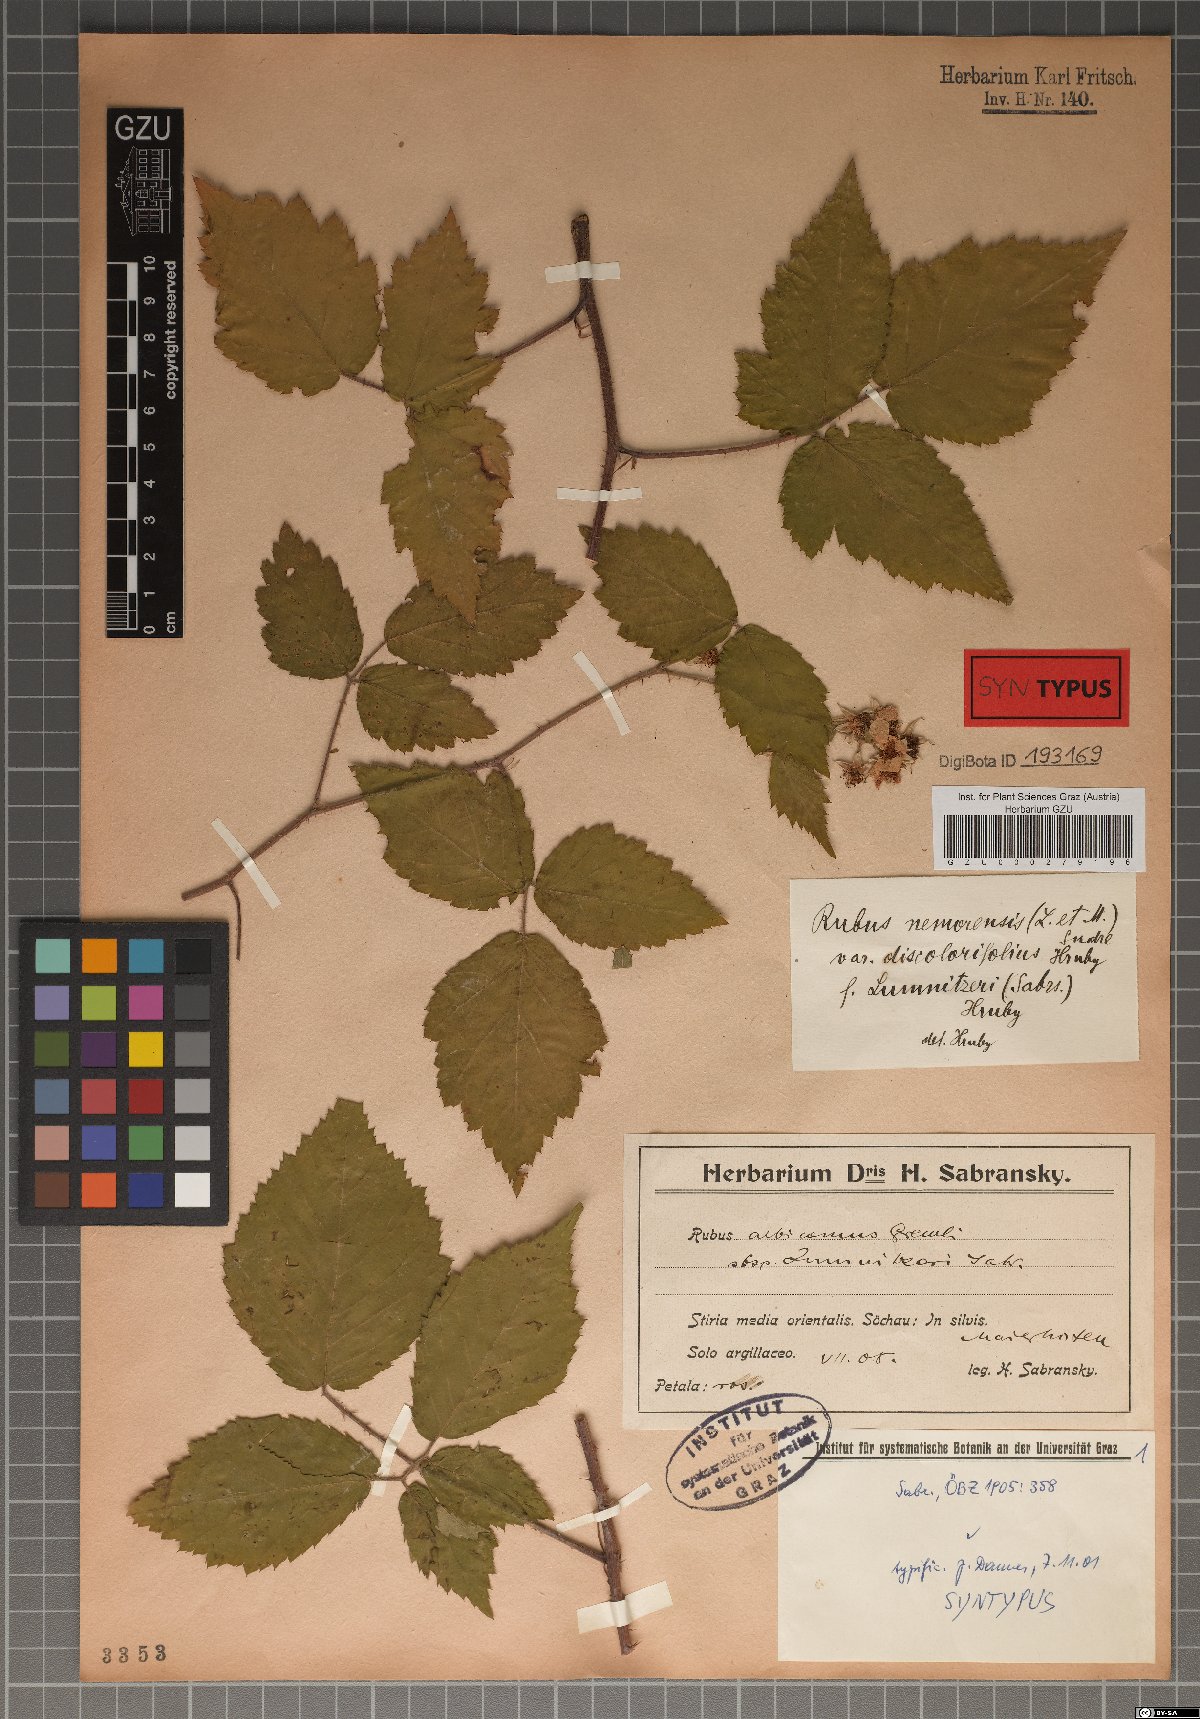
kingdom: Plantae
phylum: Tracheophyta
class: Magnoliopsida
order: Rosales
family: Rosaceae
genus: Rubus
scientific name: Rubus lumnitzeri
